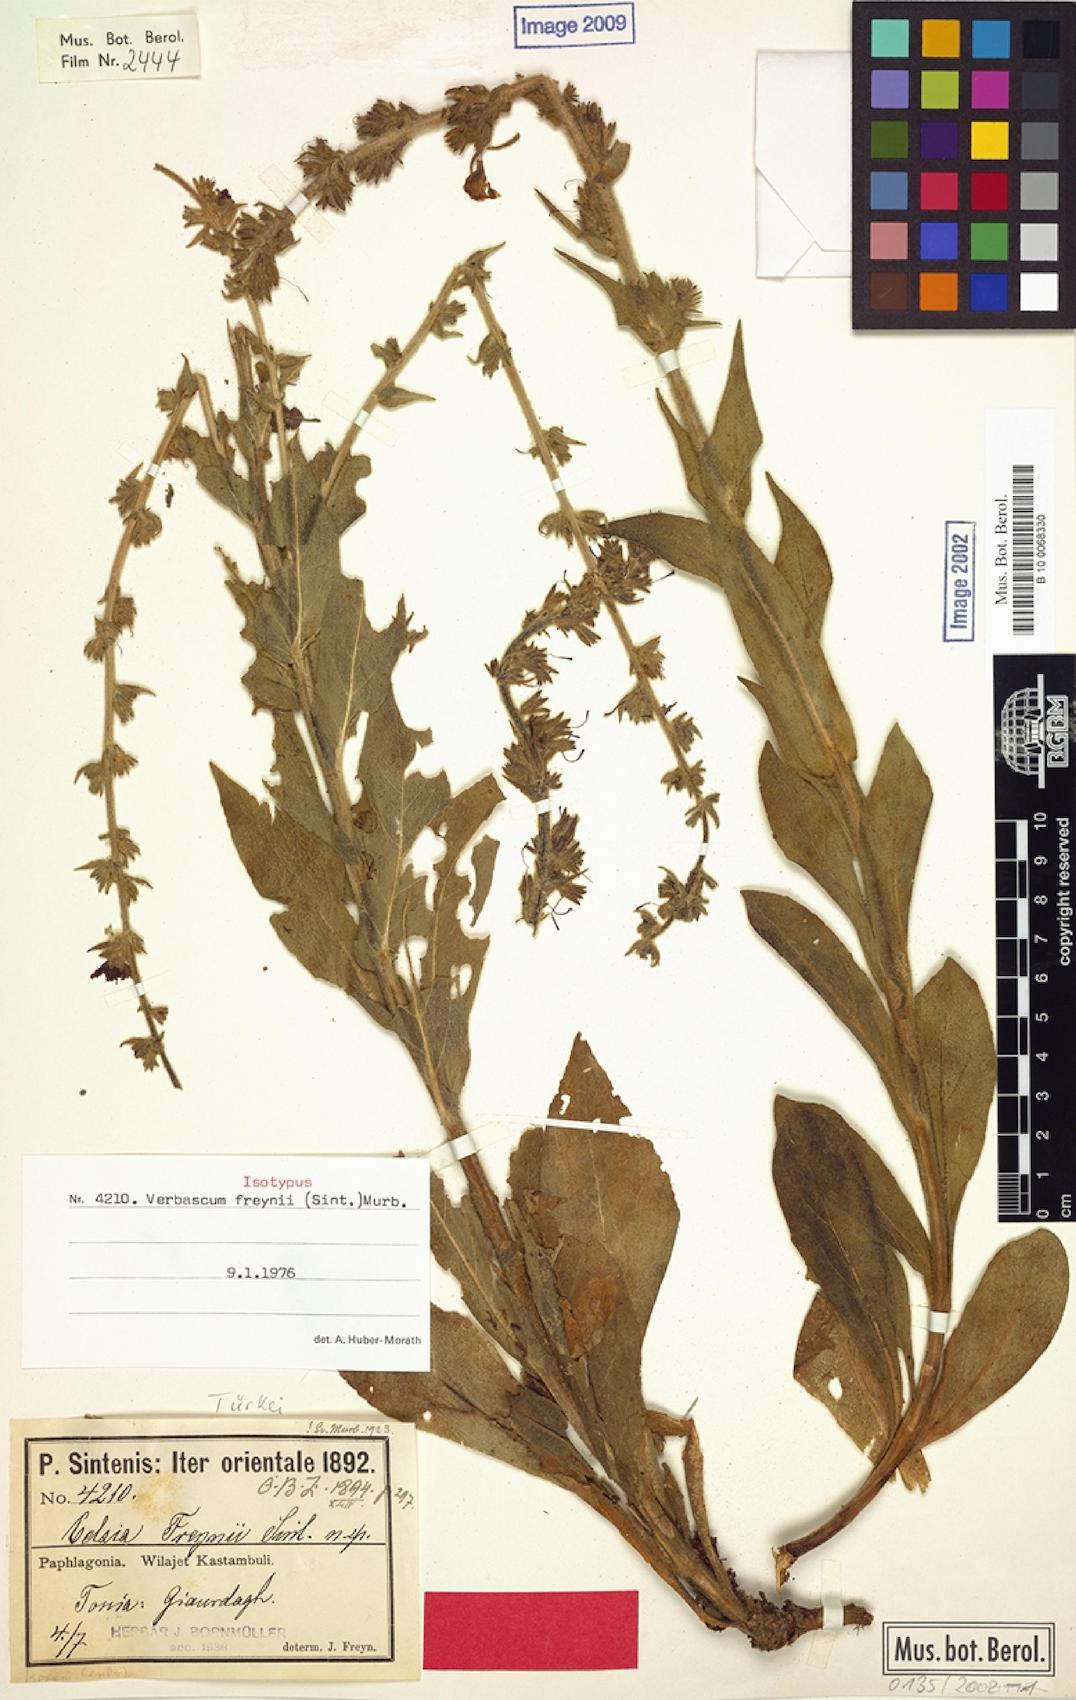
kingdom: Plantae
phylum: Tracheophyta
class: Magnoliopsida
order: Lamiales
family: Scrophulariaceae
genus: Verbascum
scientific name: Verbascum freynii
